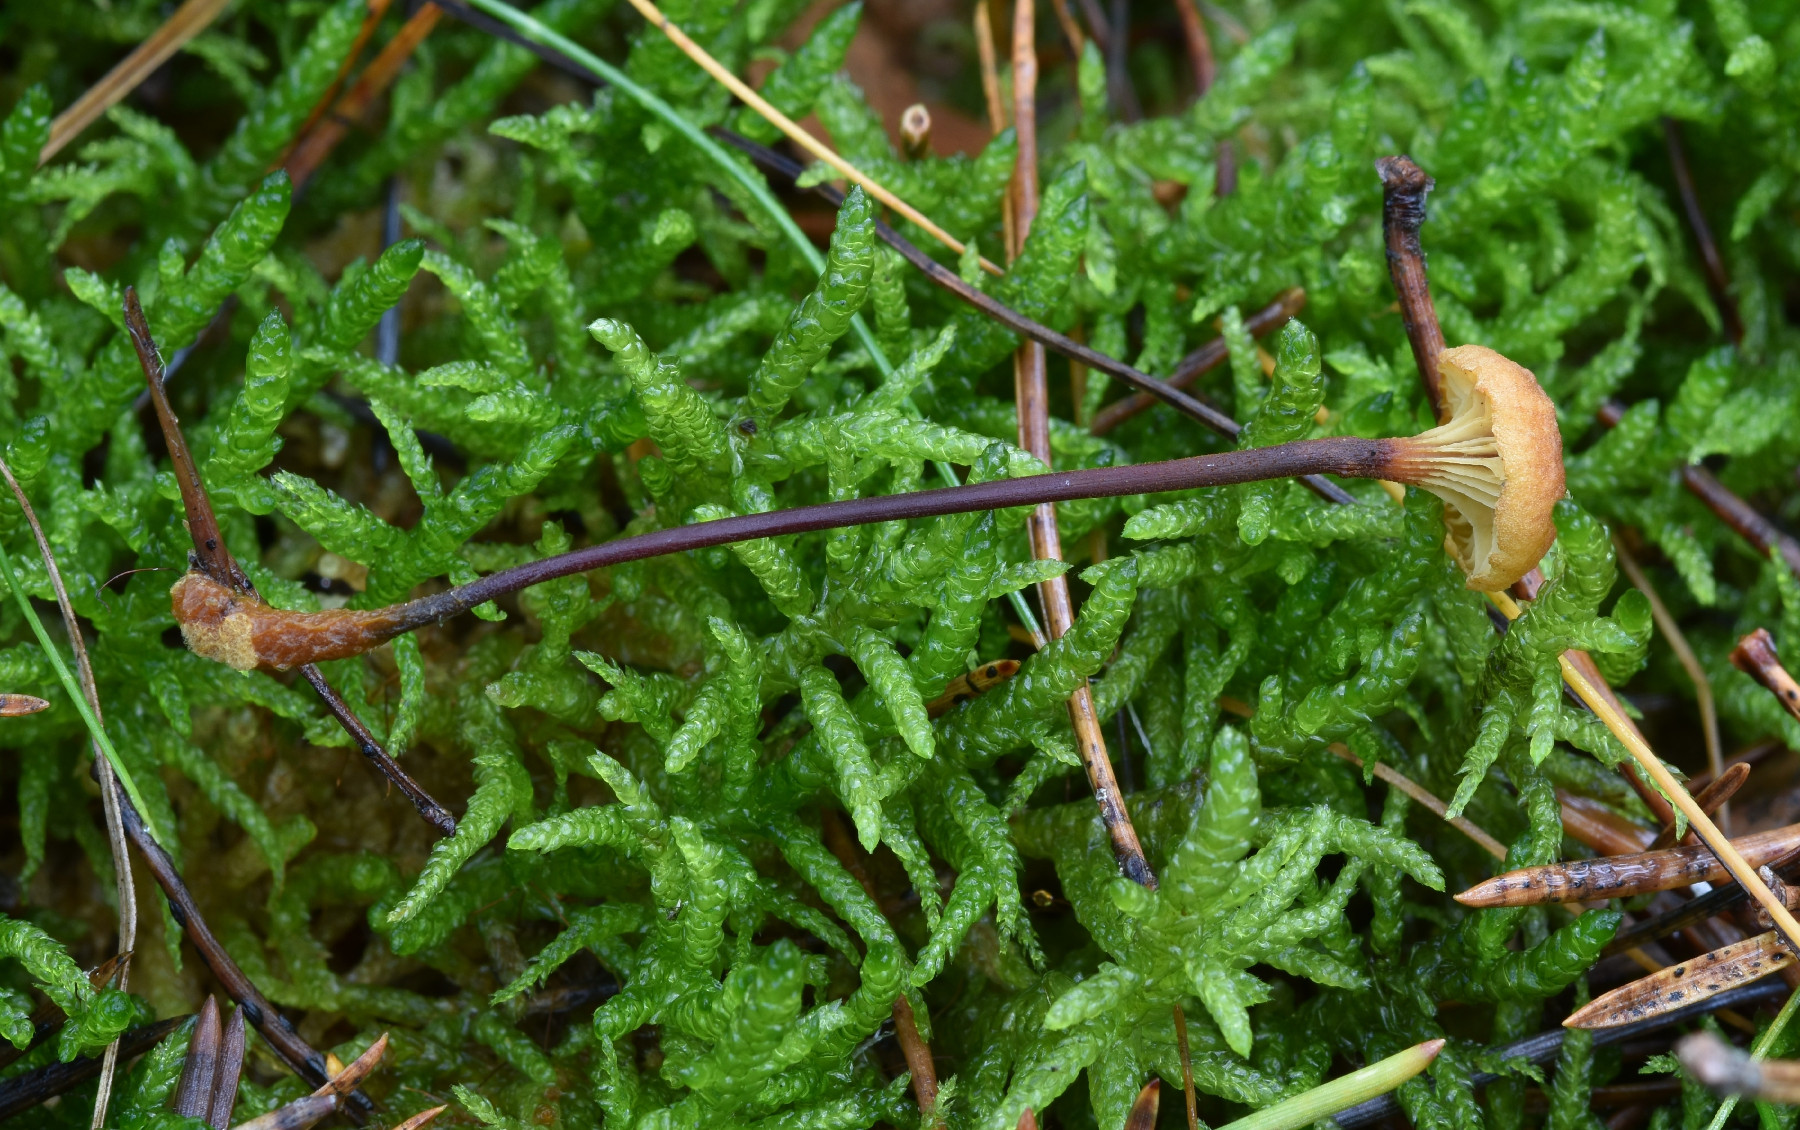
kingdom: Fungi
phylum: Basidiomycota
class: Agaricomycetes
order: Agaricales
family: Mycenaceae
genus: Xeromphalina
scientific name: Xeromphalina cauticinalis
